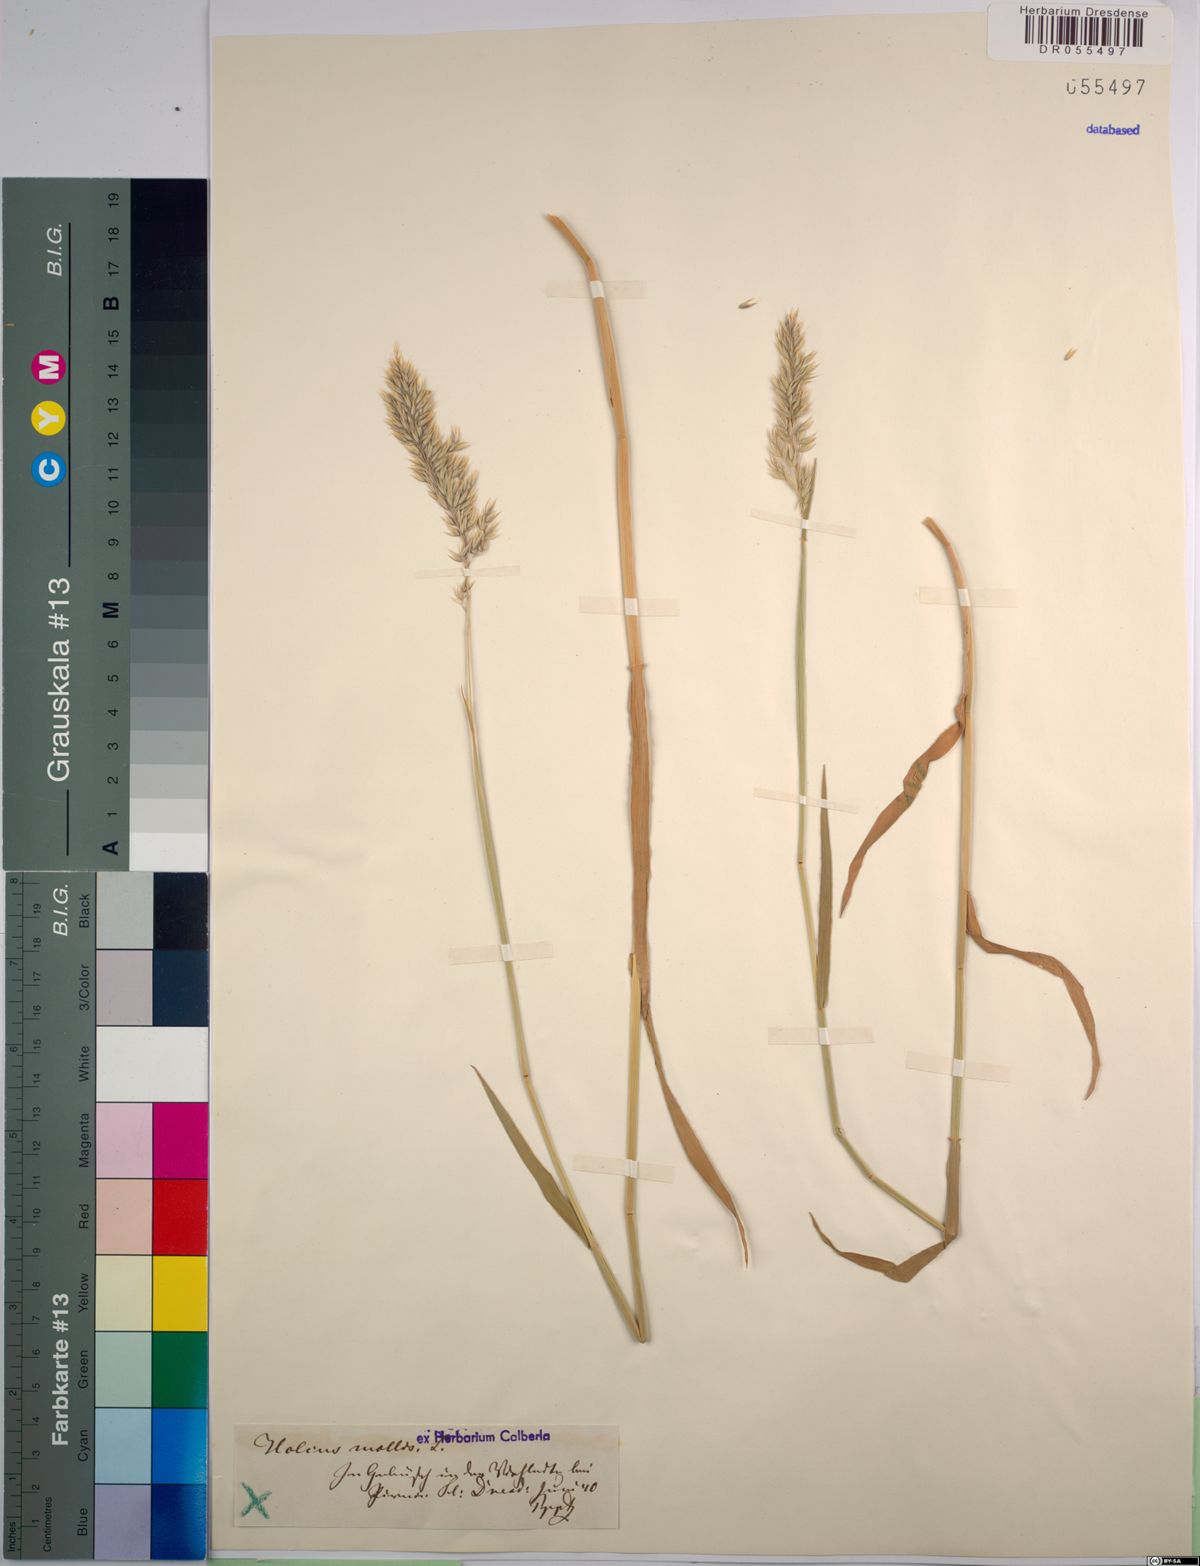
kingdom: Plantae
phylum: Tracheophyta
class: Liliopsida
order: Poales
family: Poaceae
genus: Holcus
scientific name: Holcus mollis
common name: Creeping velvetgrass
